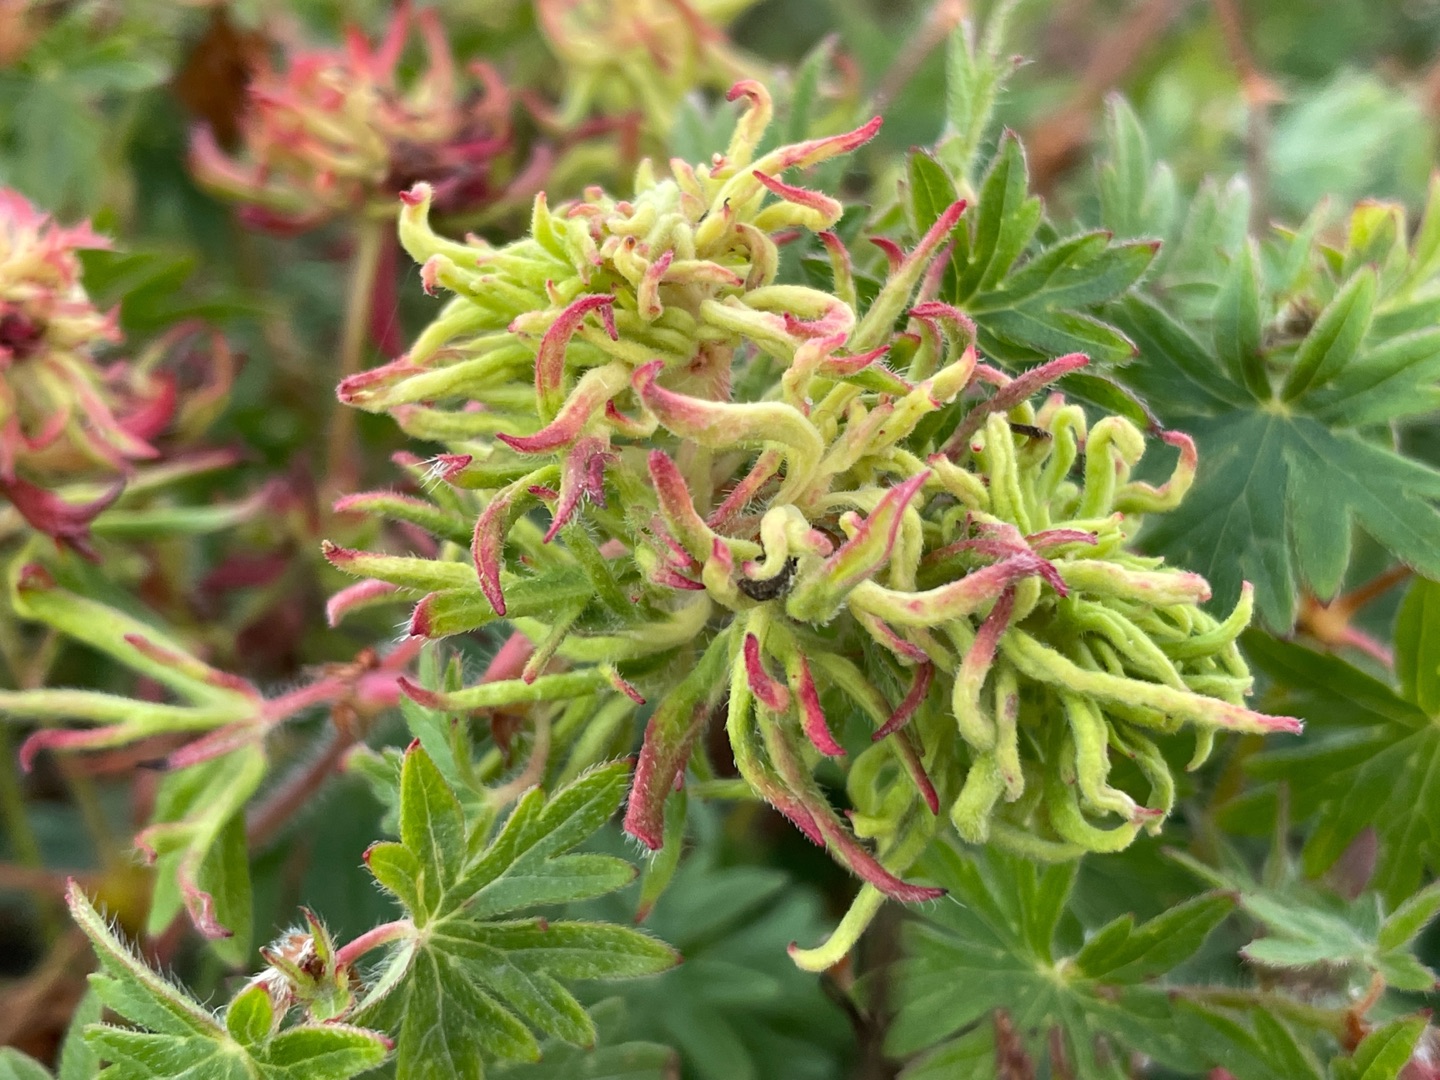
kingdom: Animalia
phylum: Arthropoda
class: Arachnida
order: Trombidiformes
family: Eriophyidae
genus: Aceria
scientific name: Aceria geranii
